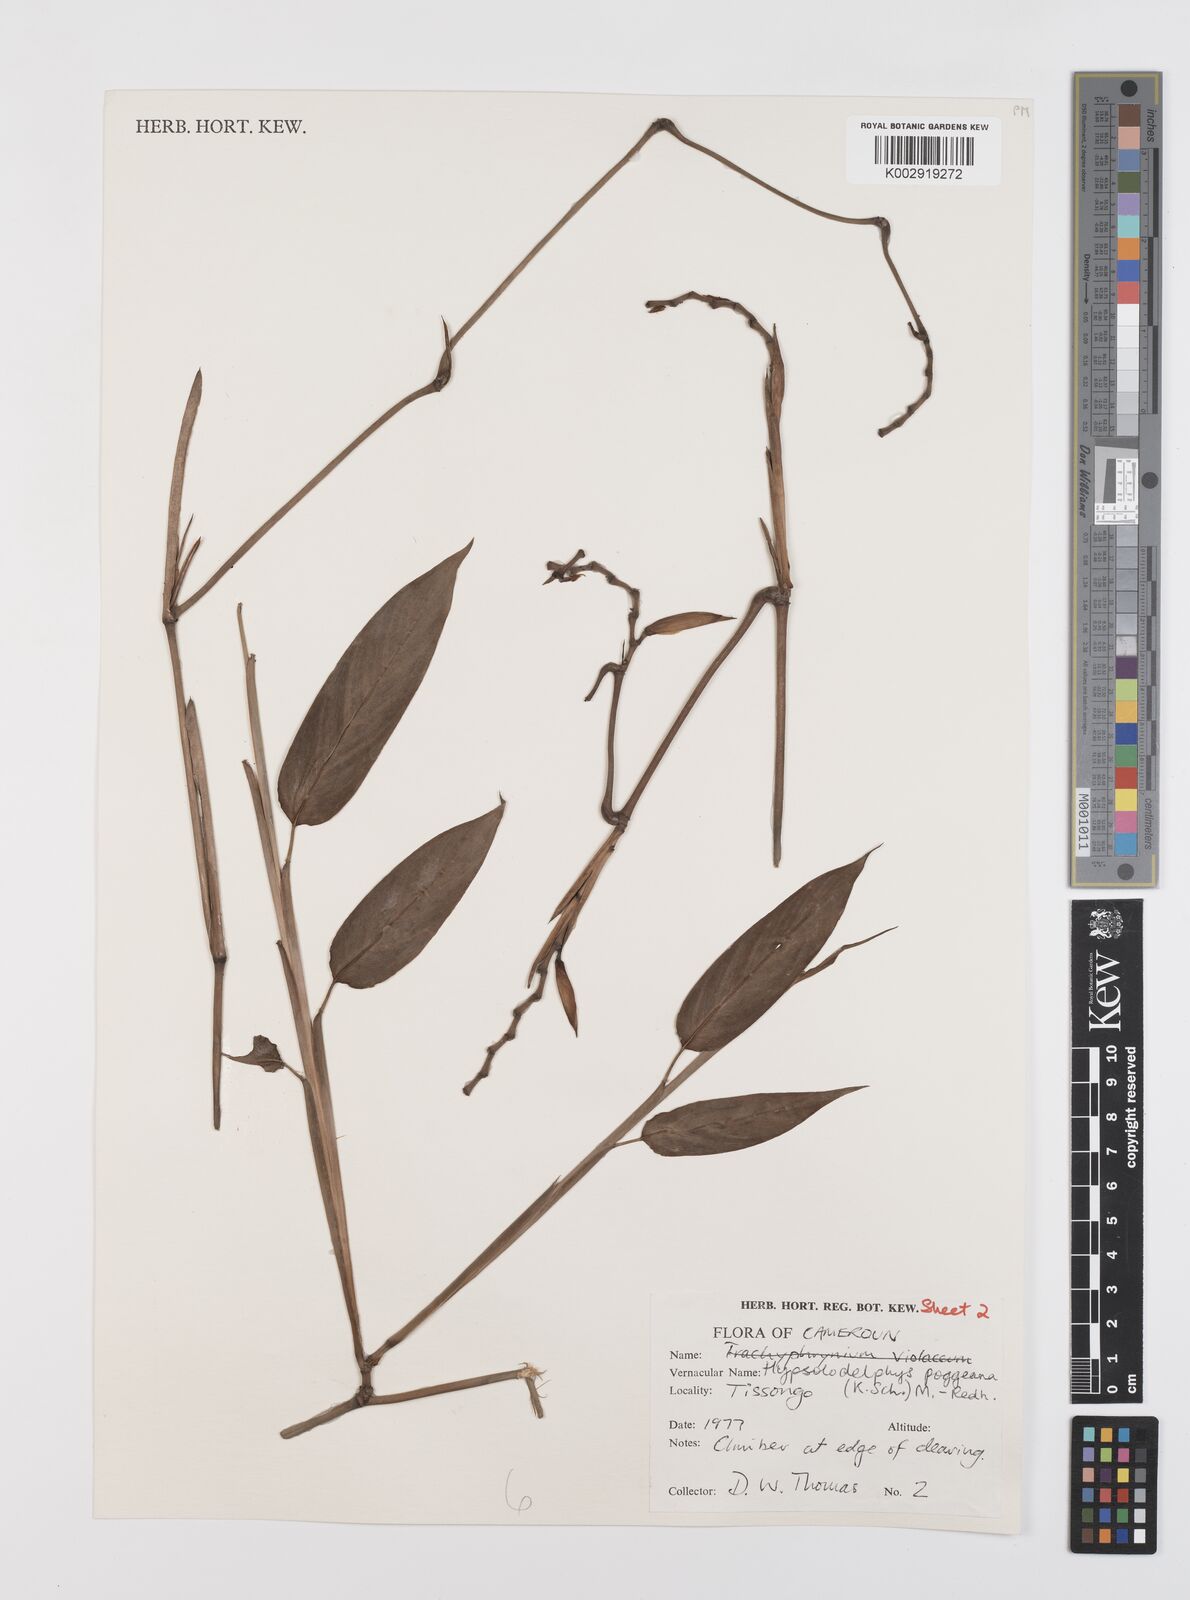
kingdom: Plantae
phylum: Tracheophyta
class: Liliopsida
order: Zingiberales
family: Marantaceae
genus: Hypselodelphys
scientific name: Hypselodelphys poggeana
